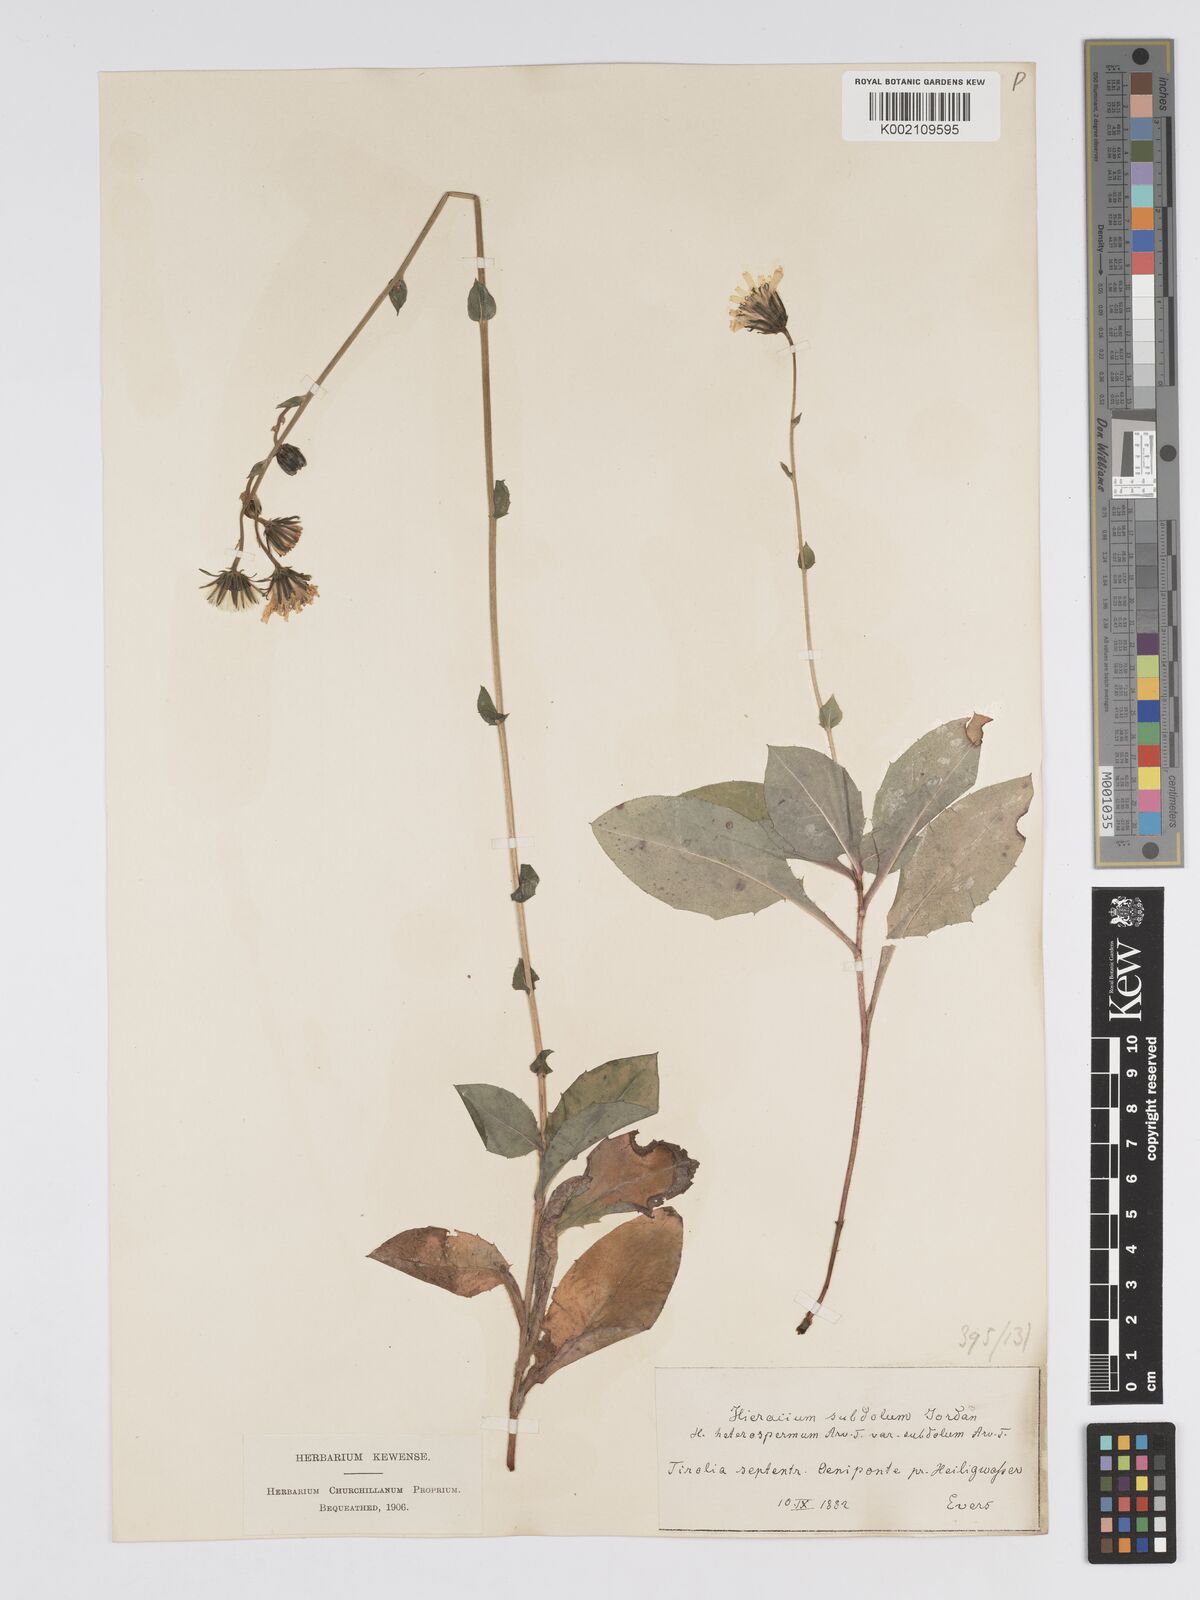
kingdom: Plantae
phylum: Tracheophyta
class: Magnoliopsida
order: Asterales
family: Asteraceae
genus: Hieracium
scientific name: Hieracium racemosum
